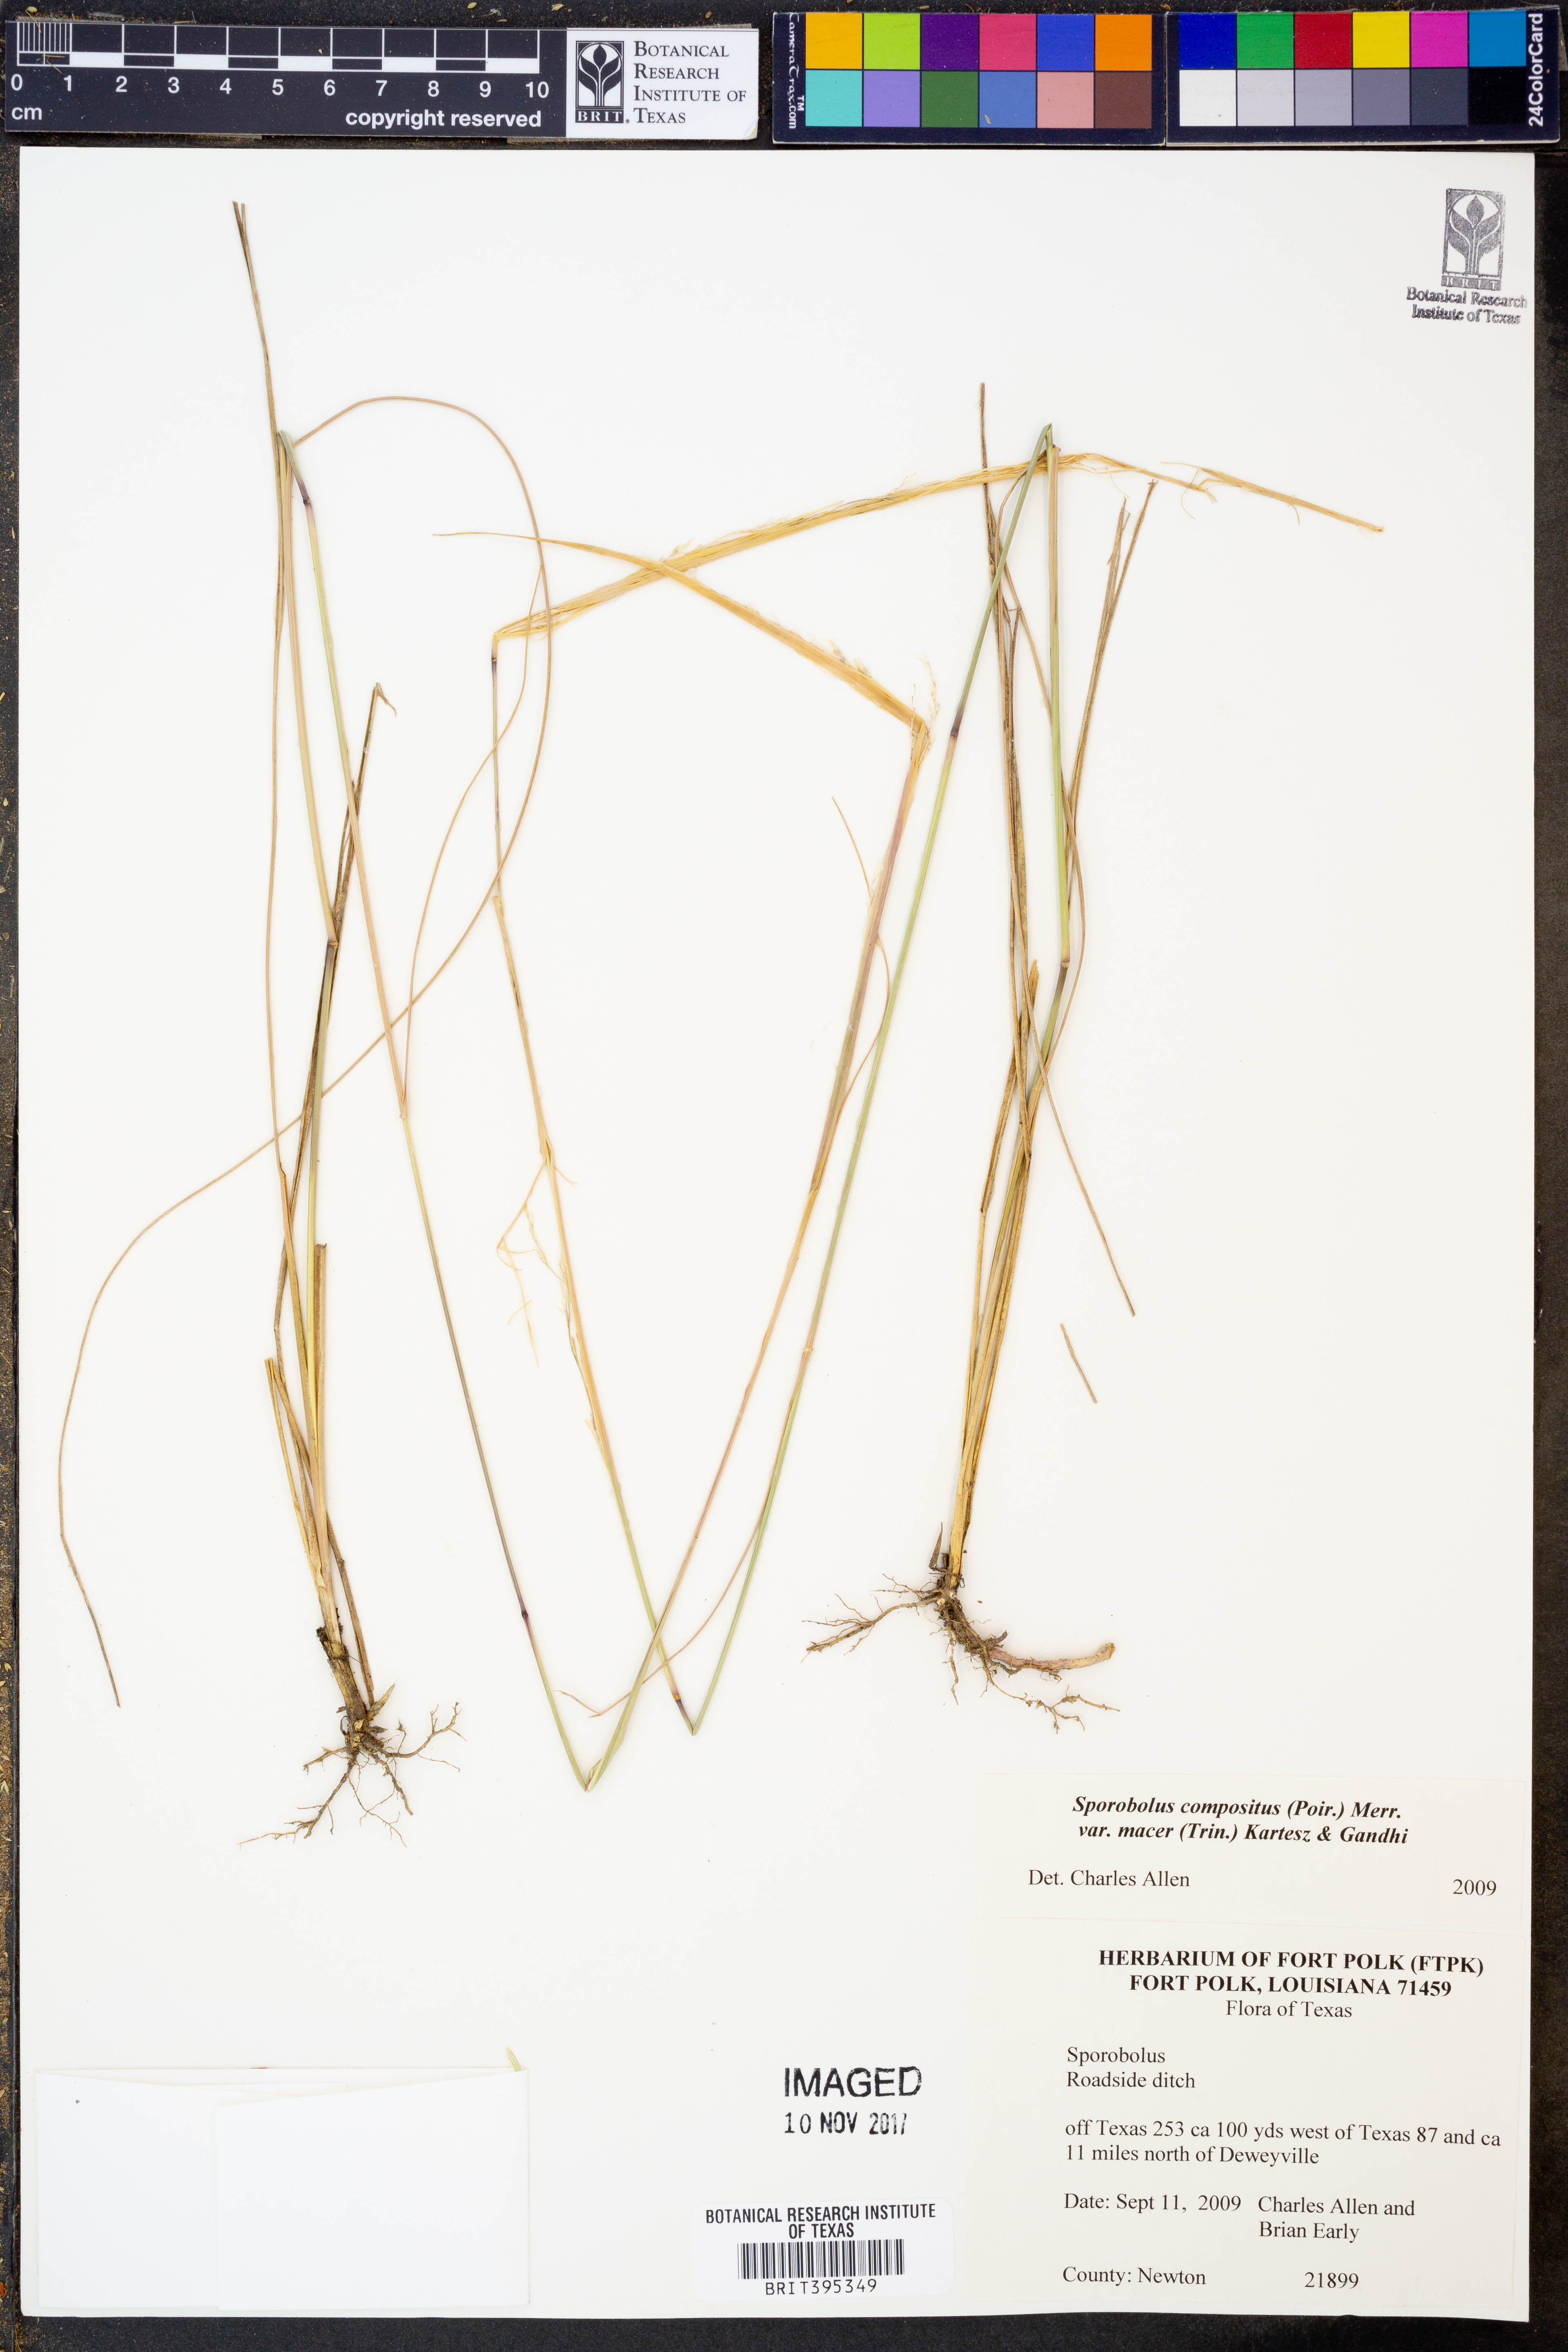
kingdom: Plantae
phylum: Tracheophyta
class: Liliopsida
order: Poales
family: Poaceae
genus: Sporobolus
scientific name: Sporobolus macer
